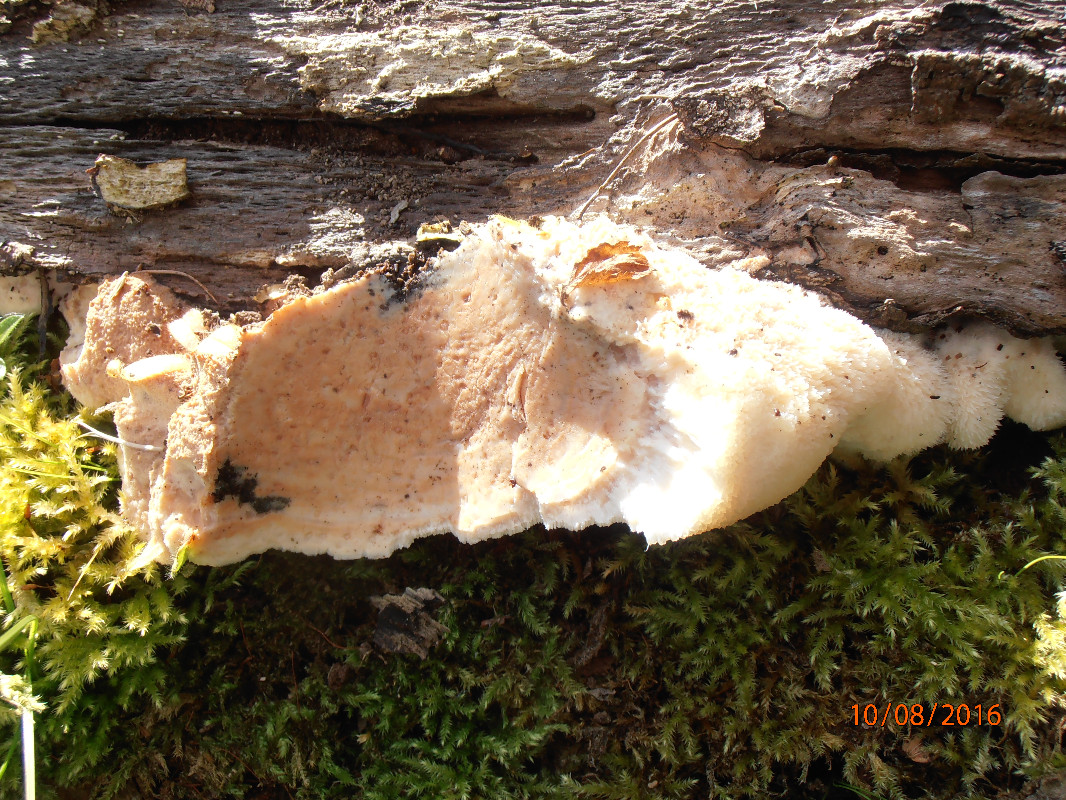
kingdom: Fungi
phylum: Basidiomycota
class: Agaricomycetes
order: Polyporales
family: Meruliaceae
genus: Pappia
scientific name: Pappia fissilis
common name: rosa fedtporesvamp
